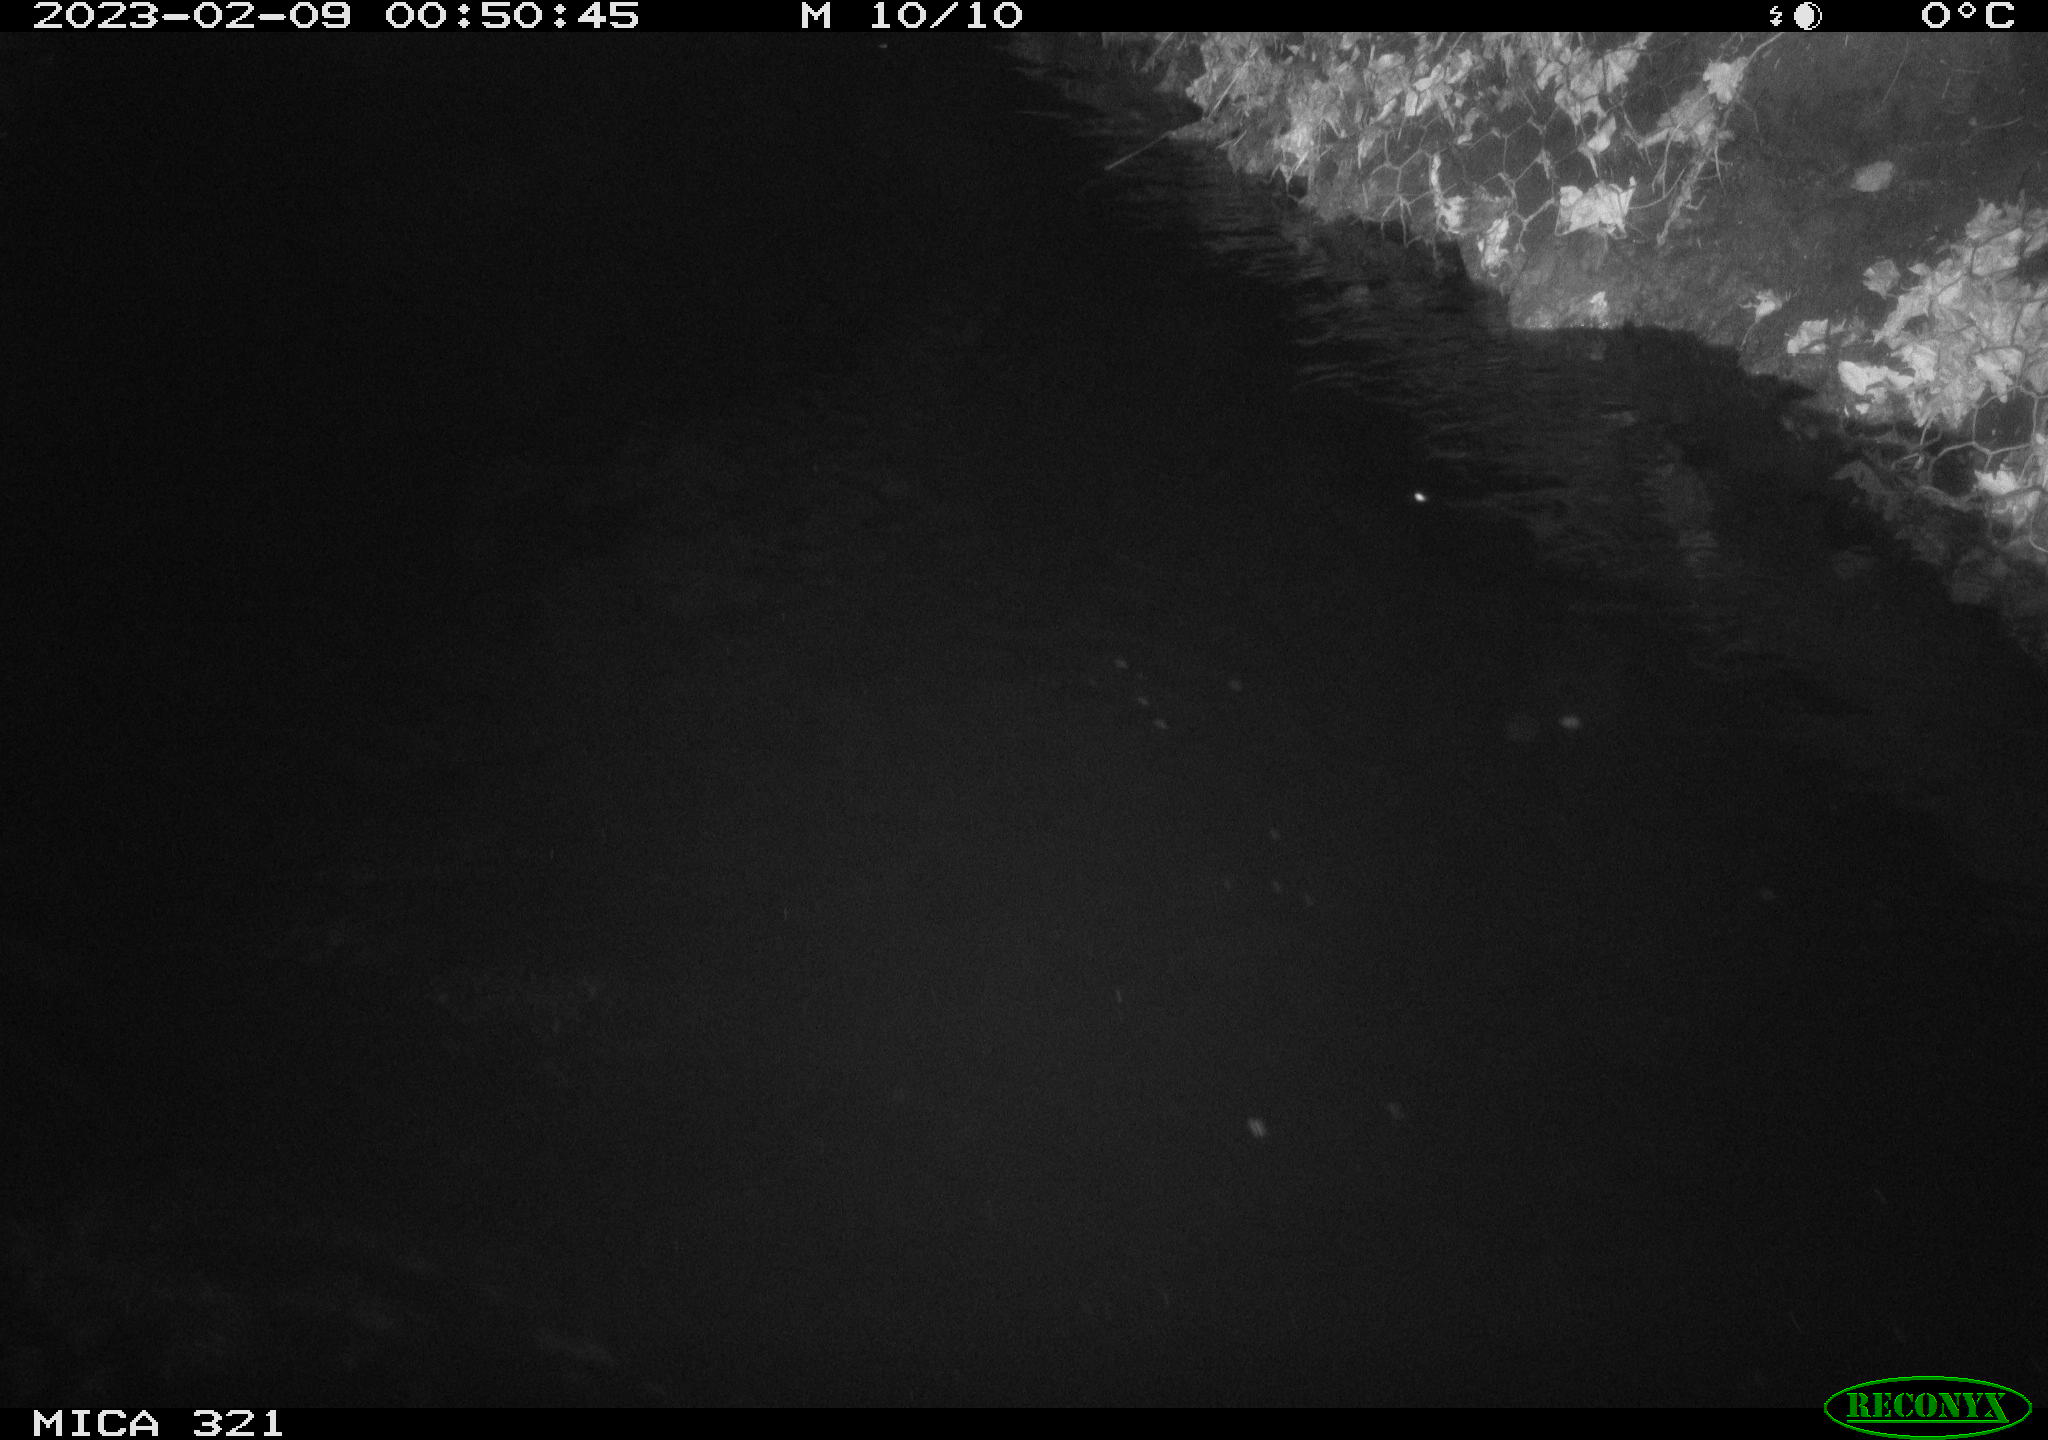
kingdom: Animalia
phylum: Chordata
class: Aves
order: Anseriformes
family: Anatidae
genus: Anas
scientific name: Anas
